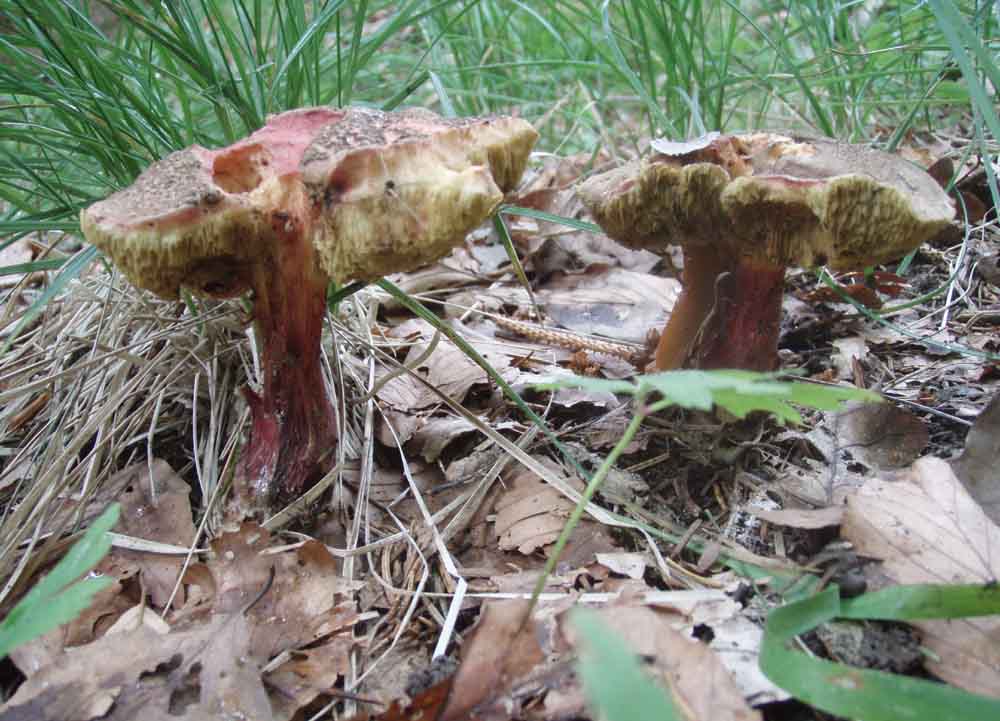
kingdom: Fungi
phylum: Basidiomycota
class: Agaricomycetes
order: Boletales
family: Boletaceae
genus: Xerocomellus
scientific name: Xerocomellus chrysenteron
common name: rødsprukken rørhat
